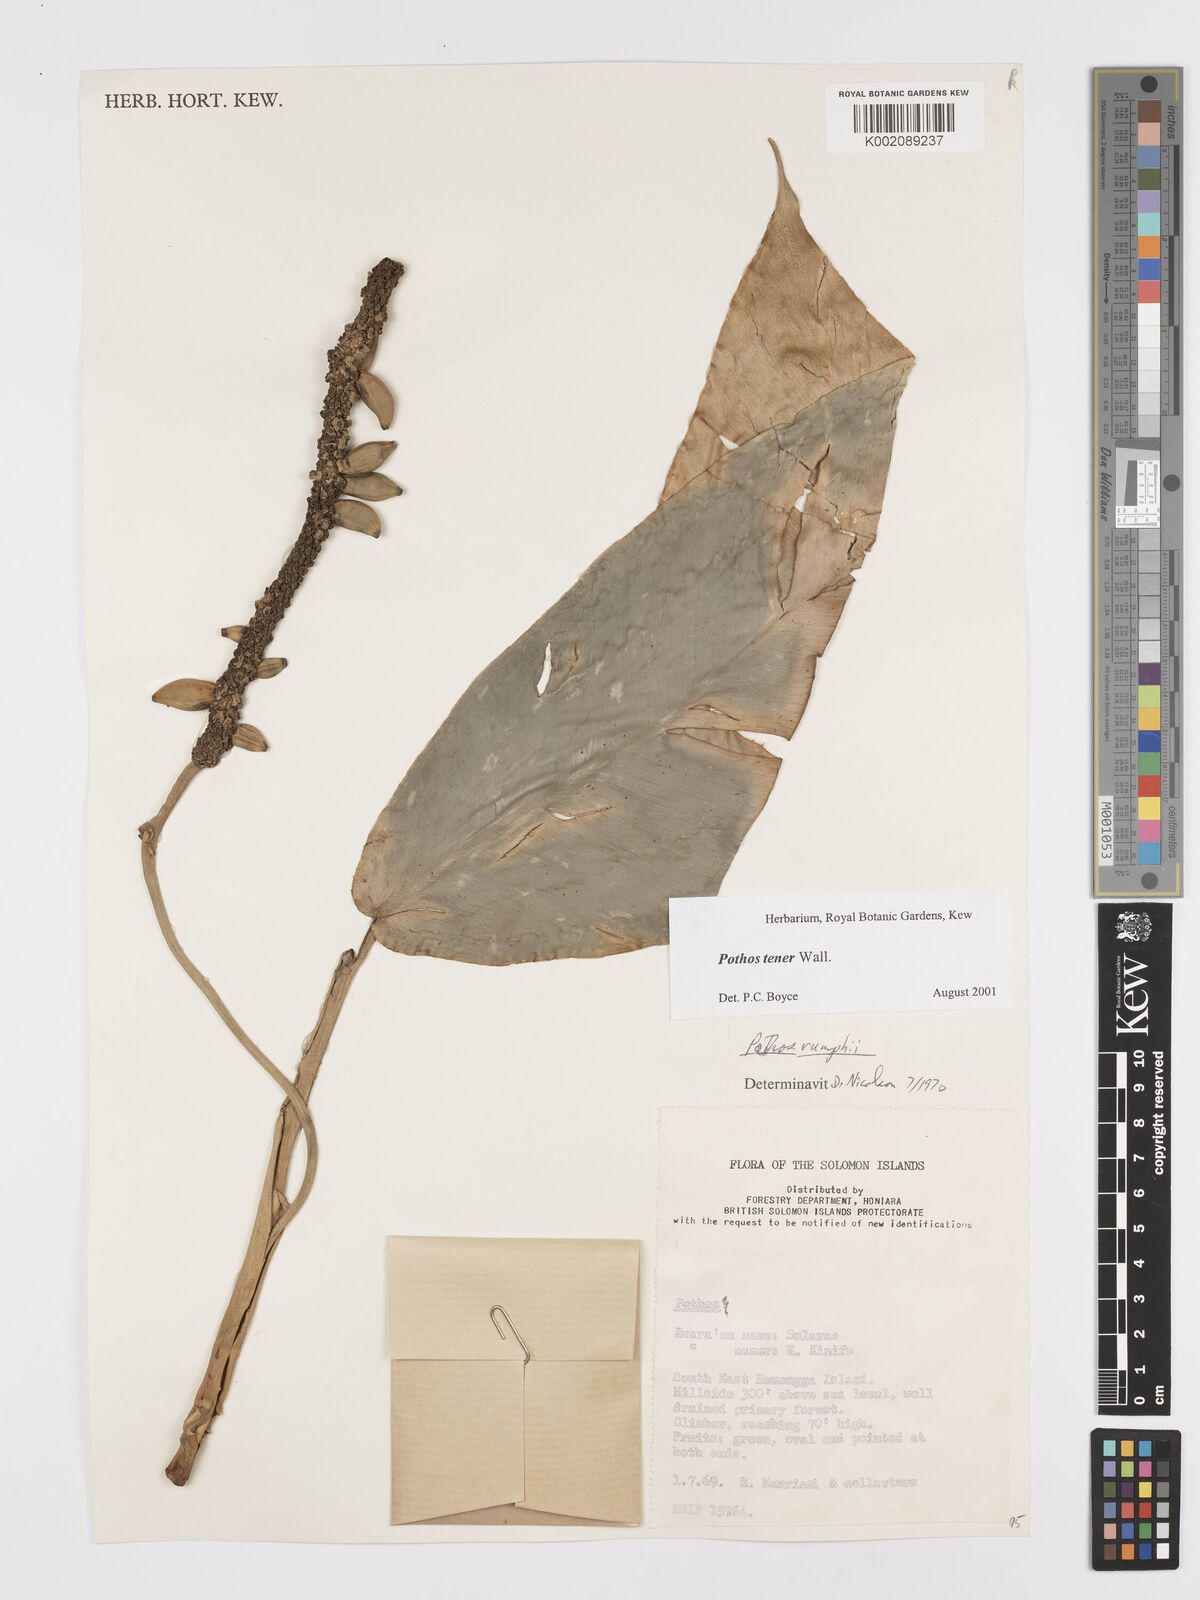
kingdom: Plantae
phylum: Tracheophyta
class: Liliopsida
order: Alismatales
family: Araceae
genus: Pothos
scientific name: Pothos tener
